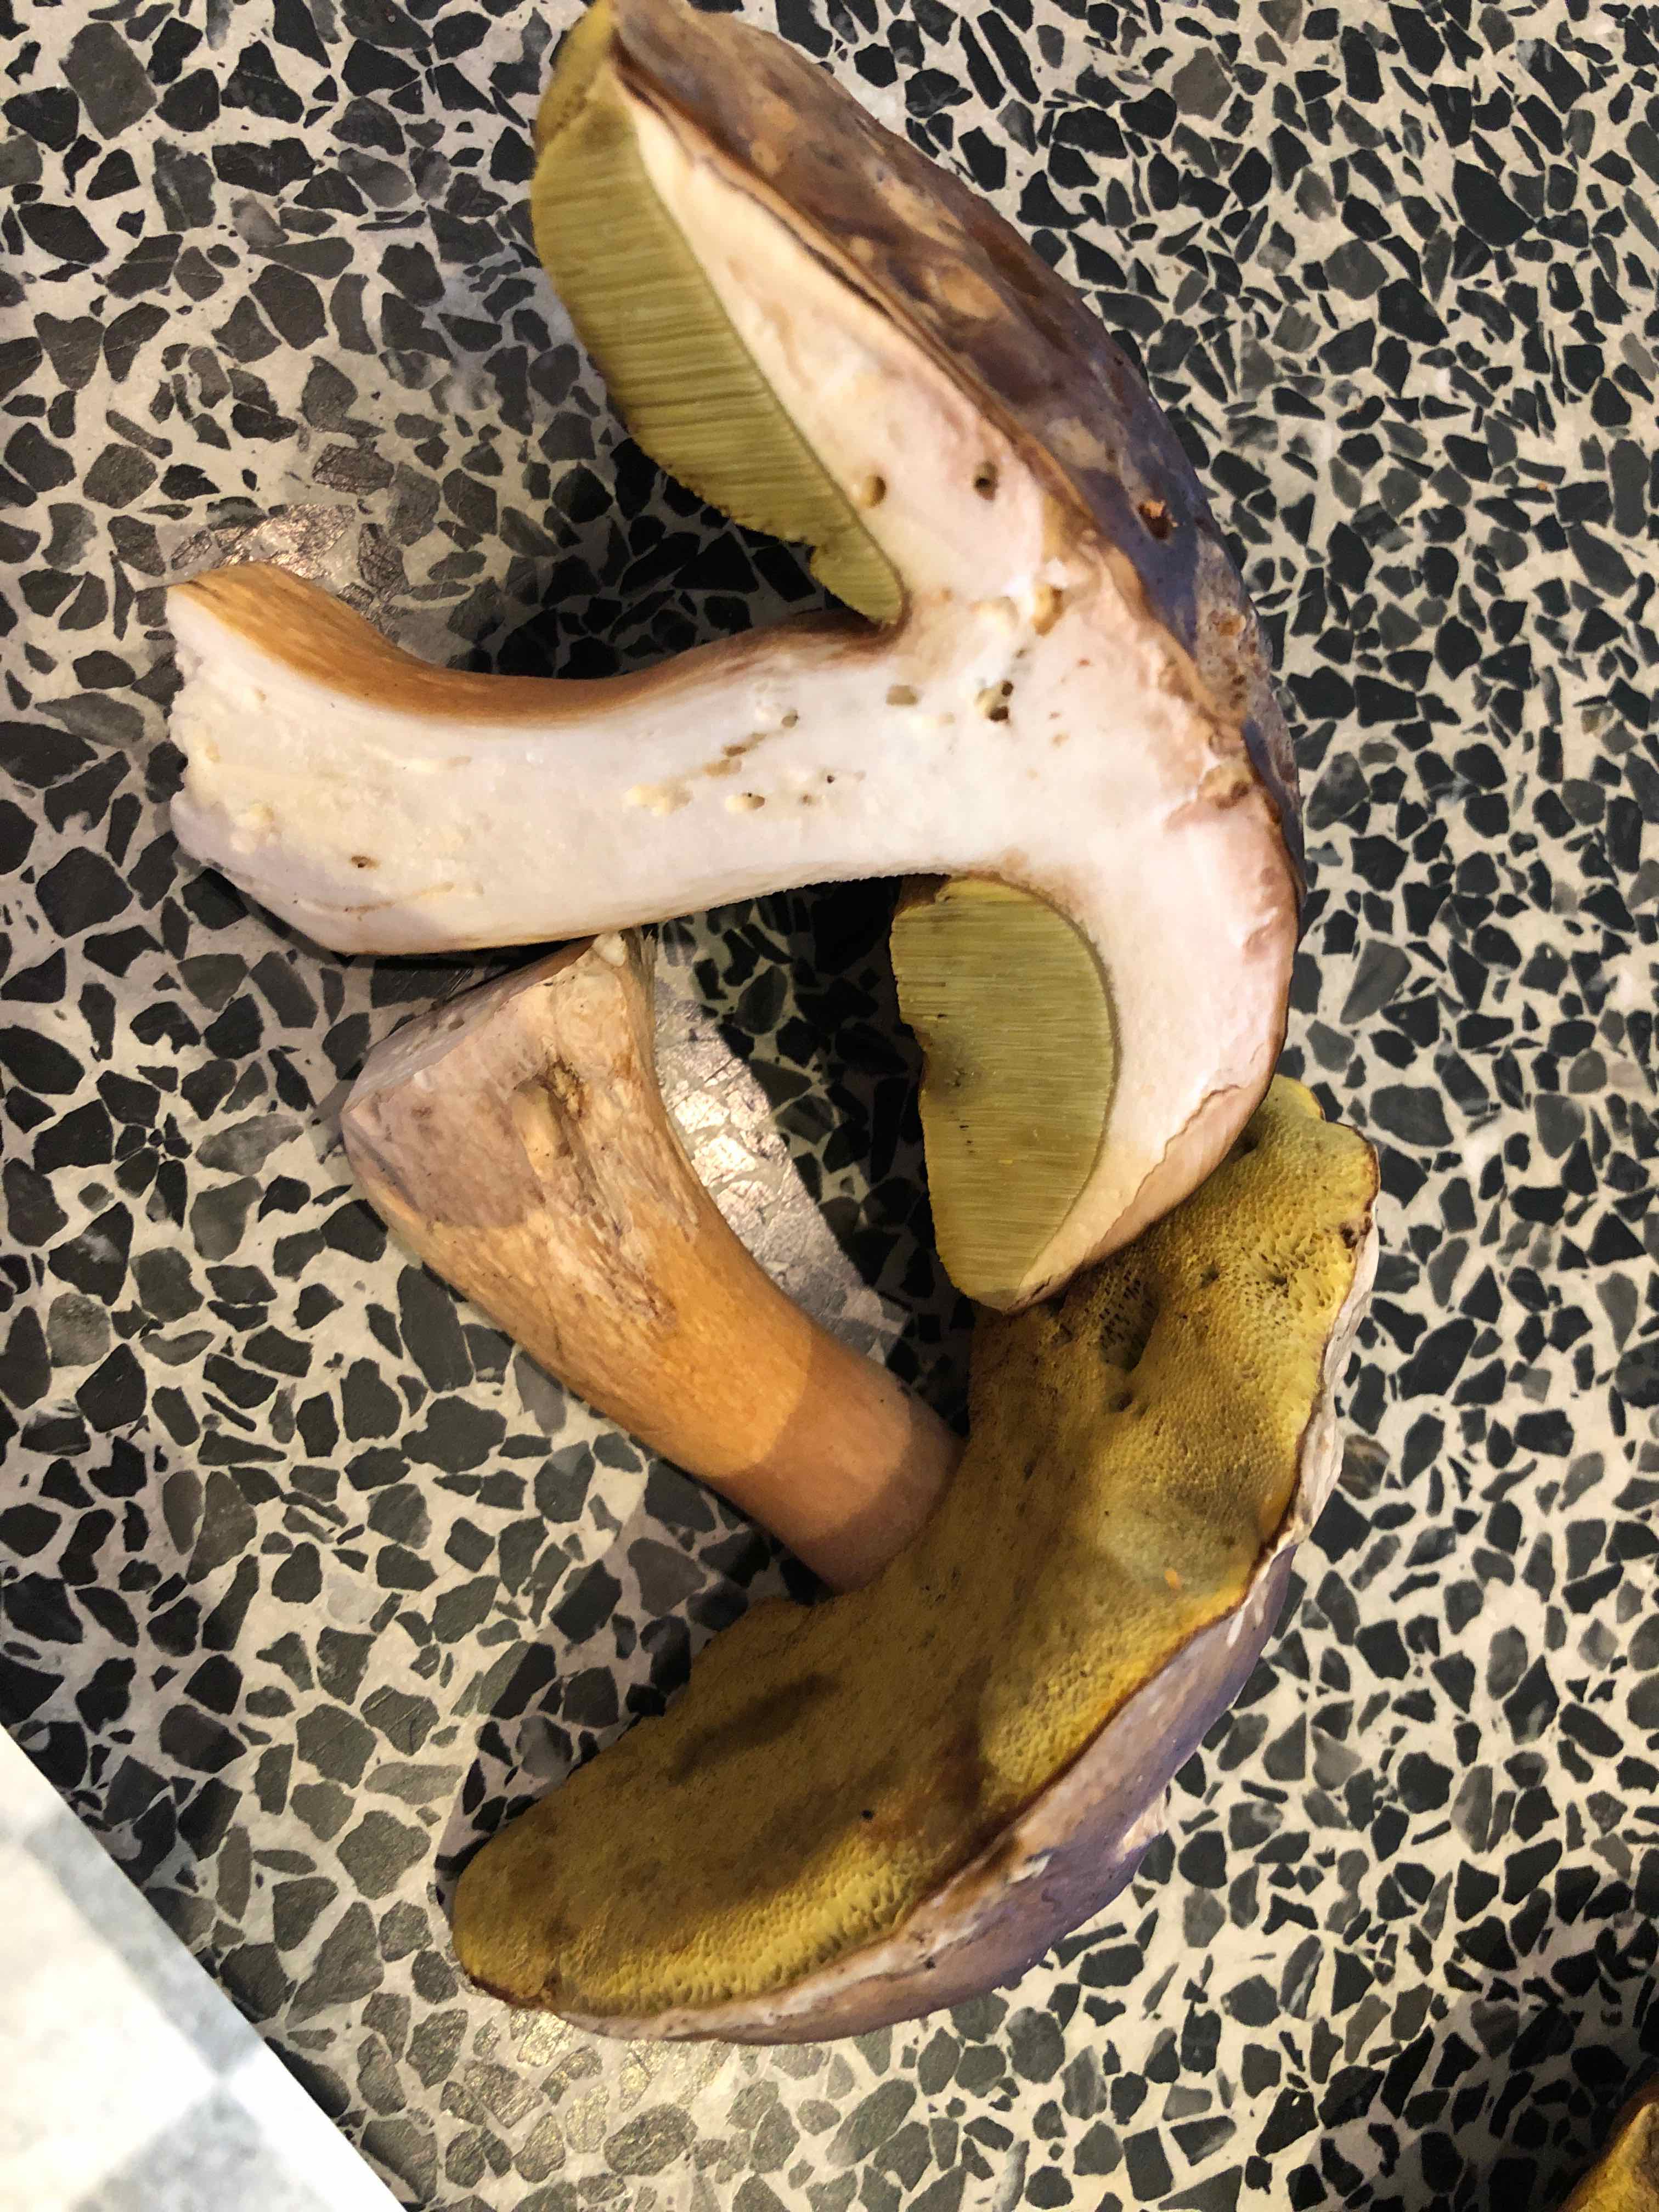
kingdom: Fungi
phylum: Basidiomycota
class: Agaricomycetes
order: Boletales
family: Boletaceae
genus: Imleria
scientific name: Imleria badia
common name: brunstokket rørhat
